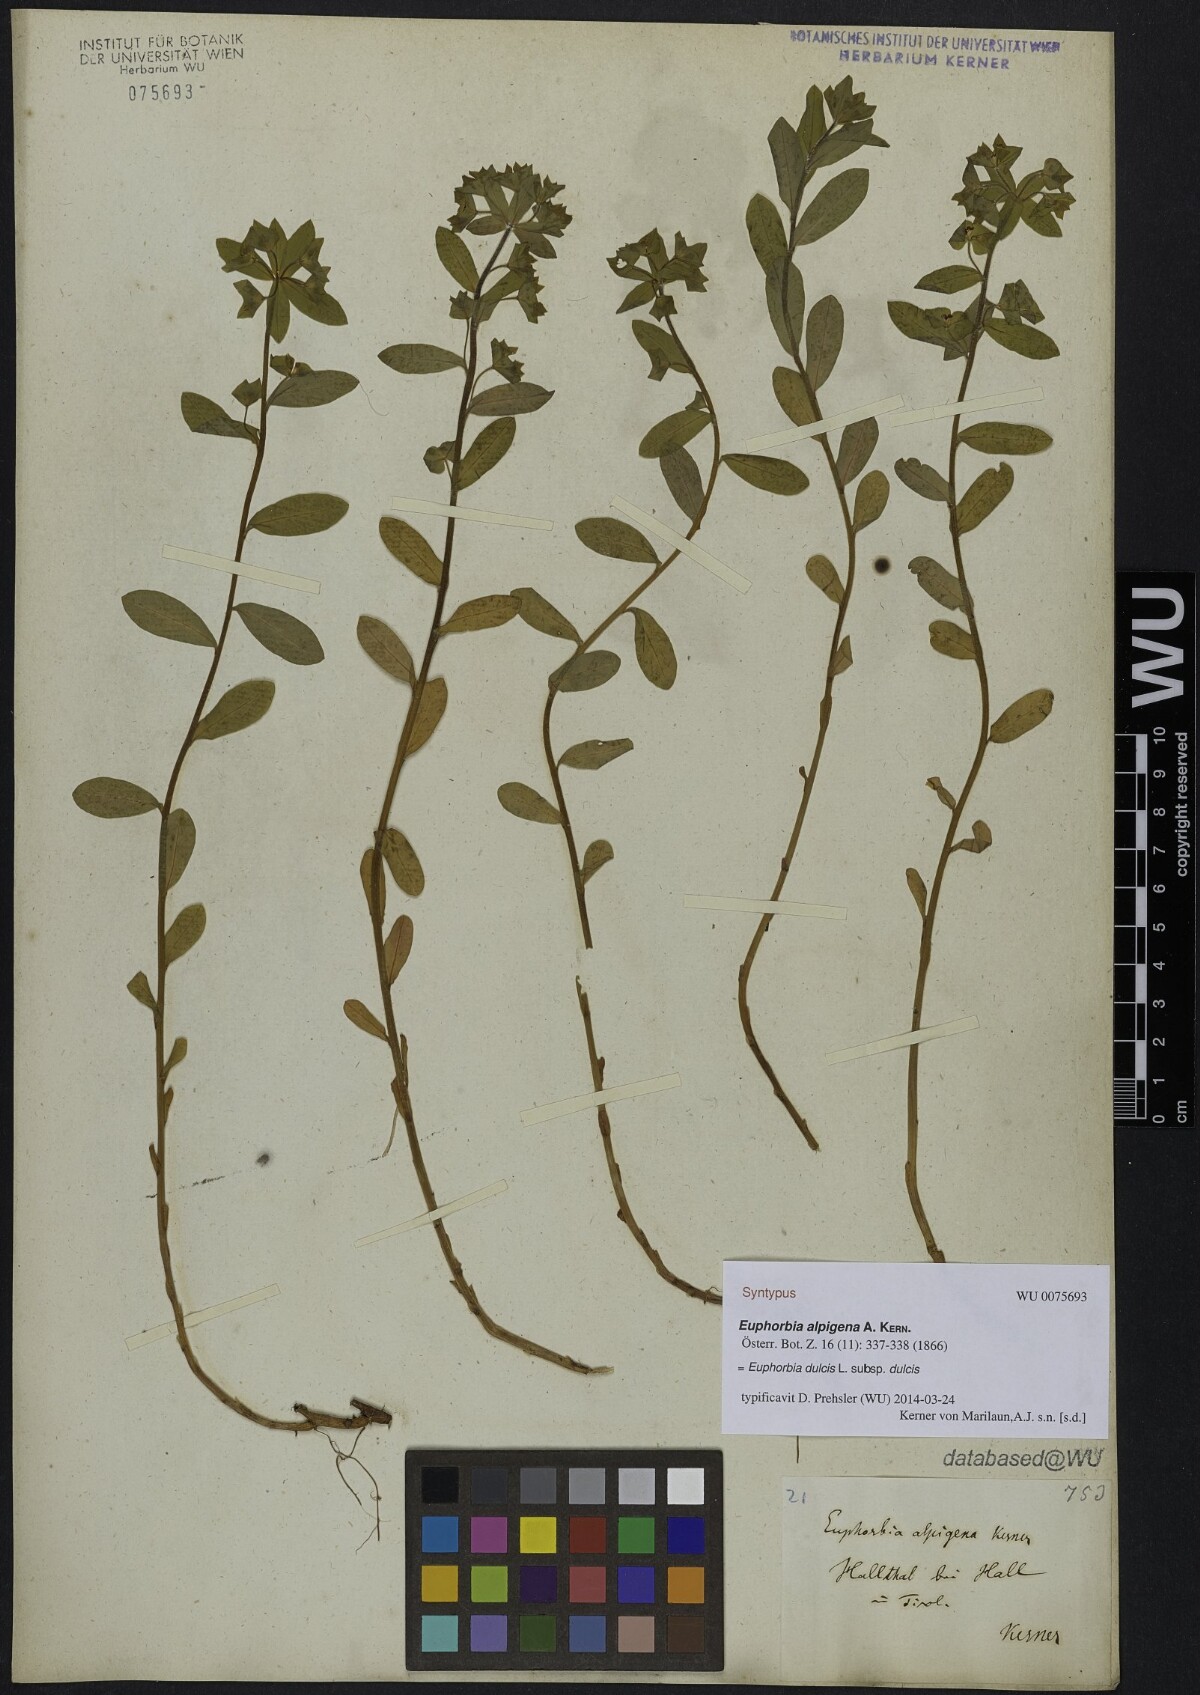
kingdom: Plantae
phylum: Tracheophyta
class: Magnoliopsida
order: Malpighiales
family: Euphorbiaceae
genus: Euphorbia
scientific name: Euphorbia dulcis
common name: Sweet spurge
